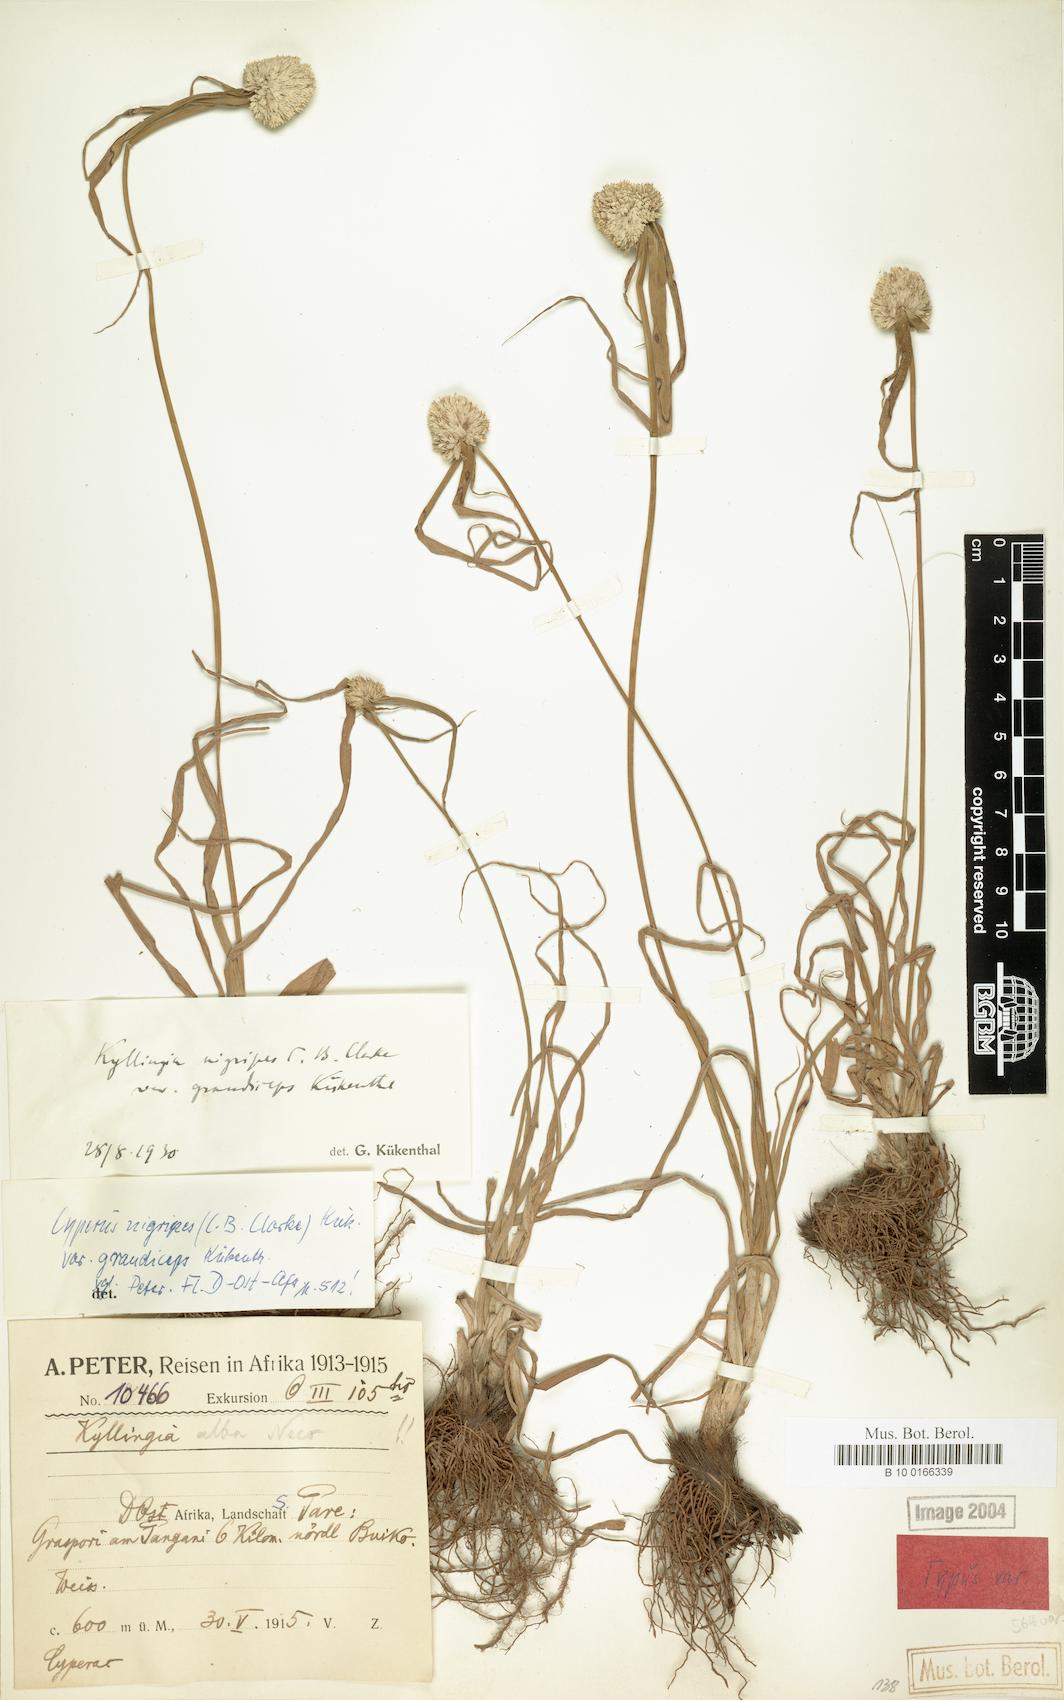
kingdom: Plantae
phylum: Tracheophyta
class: Liliopsida
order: Poales
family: Cyperaceae
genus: Cyperus
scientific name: Cyperus alatus
